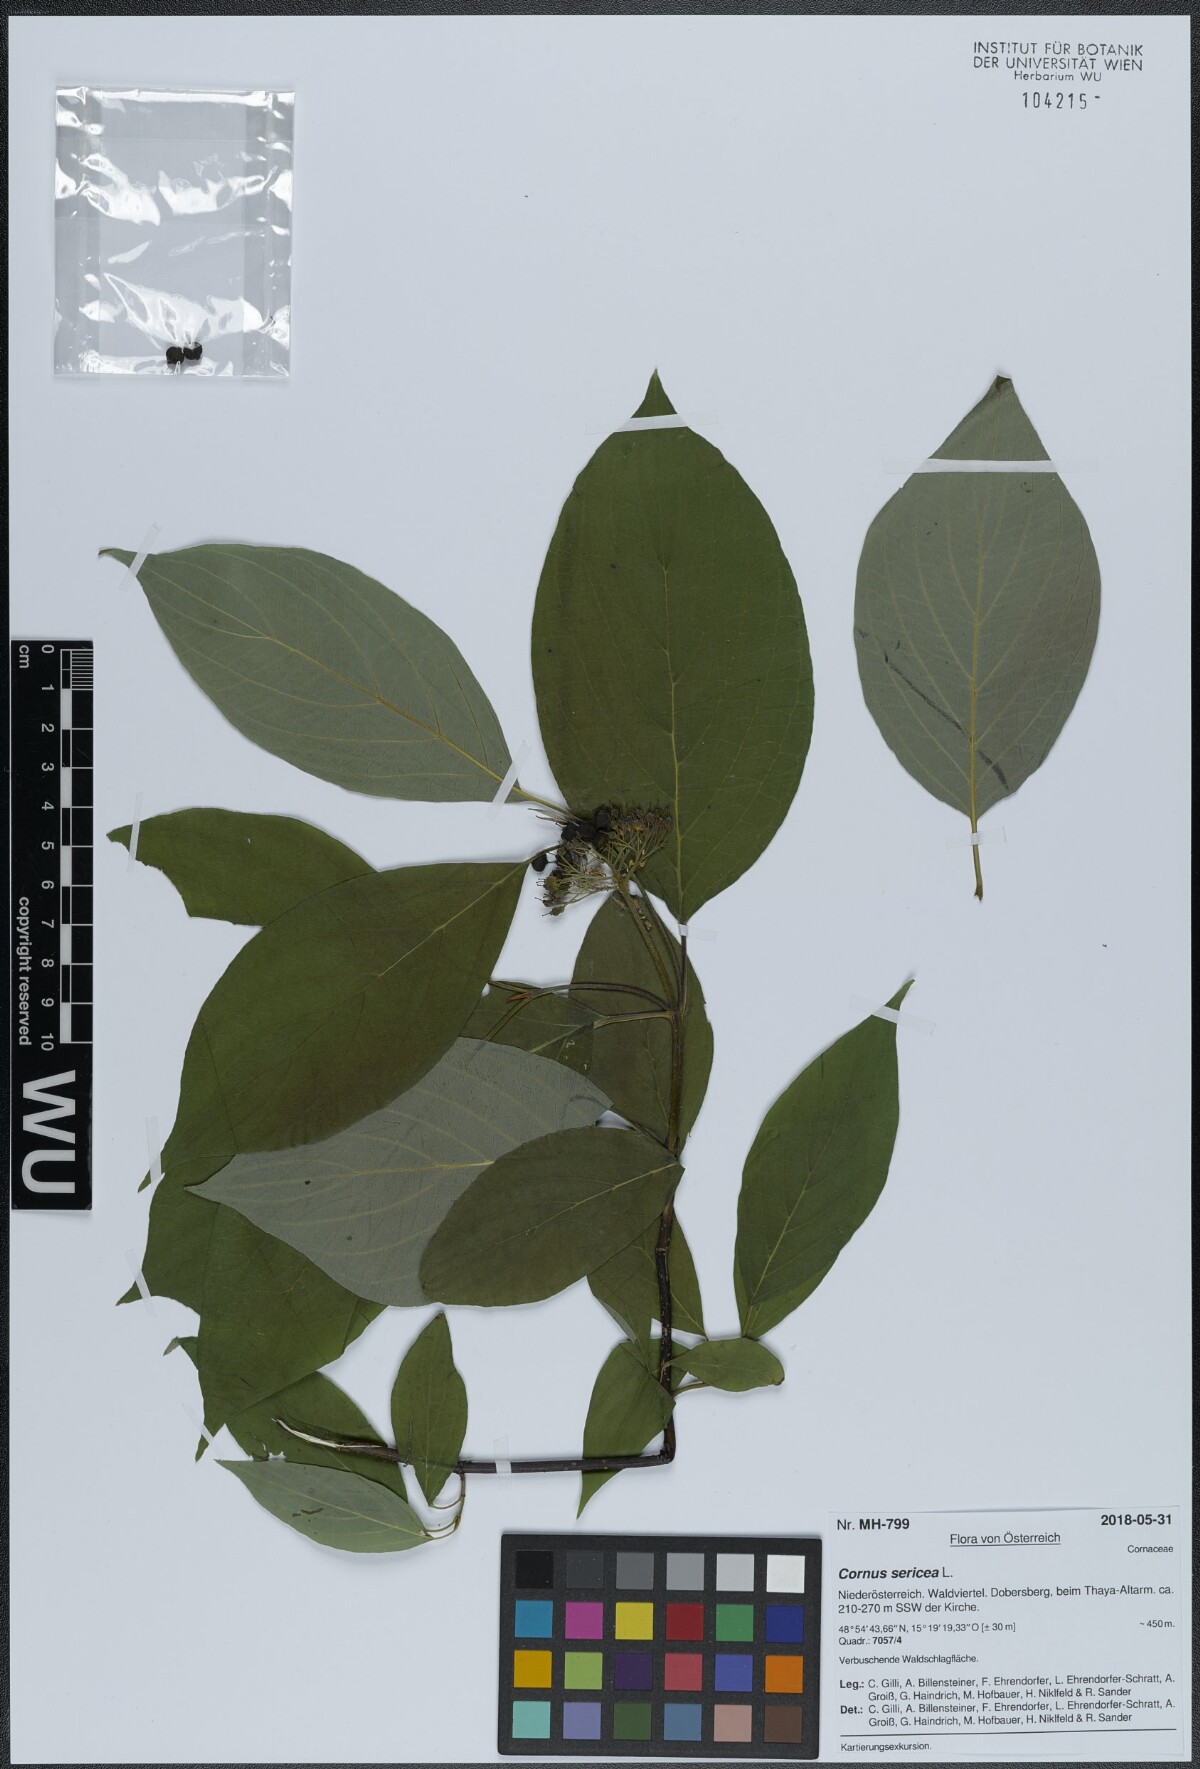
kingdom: Plantae
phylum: Tracheophyta
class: Magnoliopsida
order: Cornales
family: Cornaceae
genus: Cornus
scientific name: Cornus sericea
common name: Red-osier dogwood
